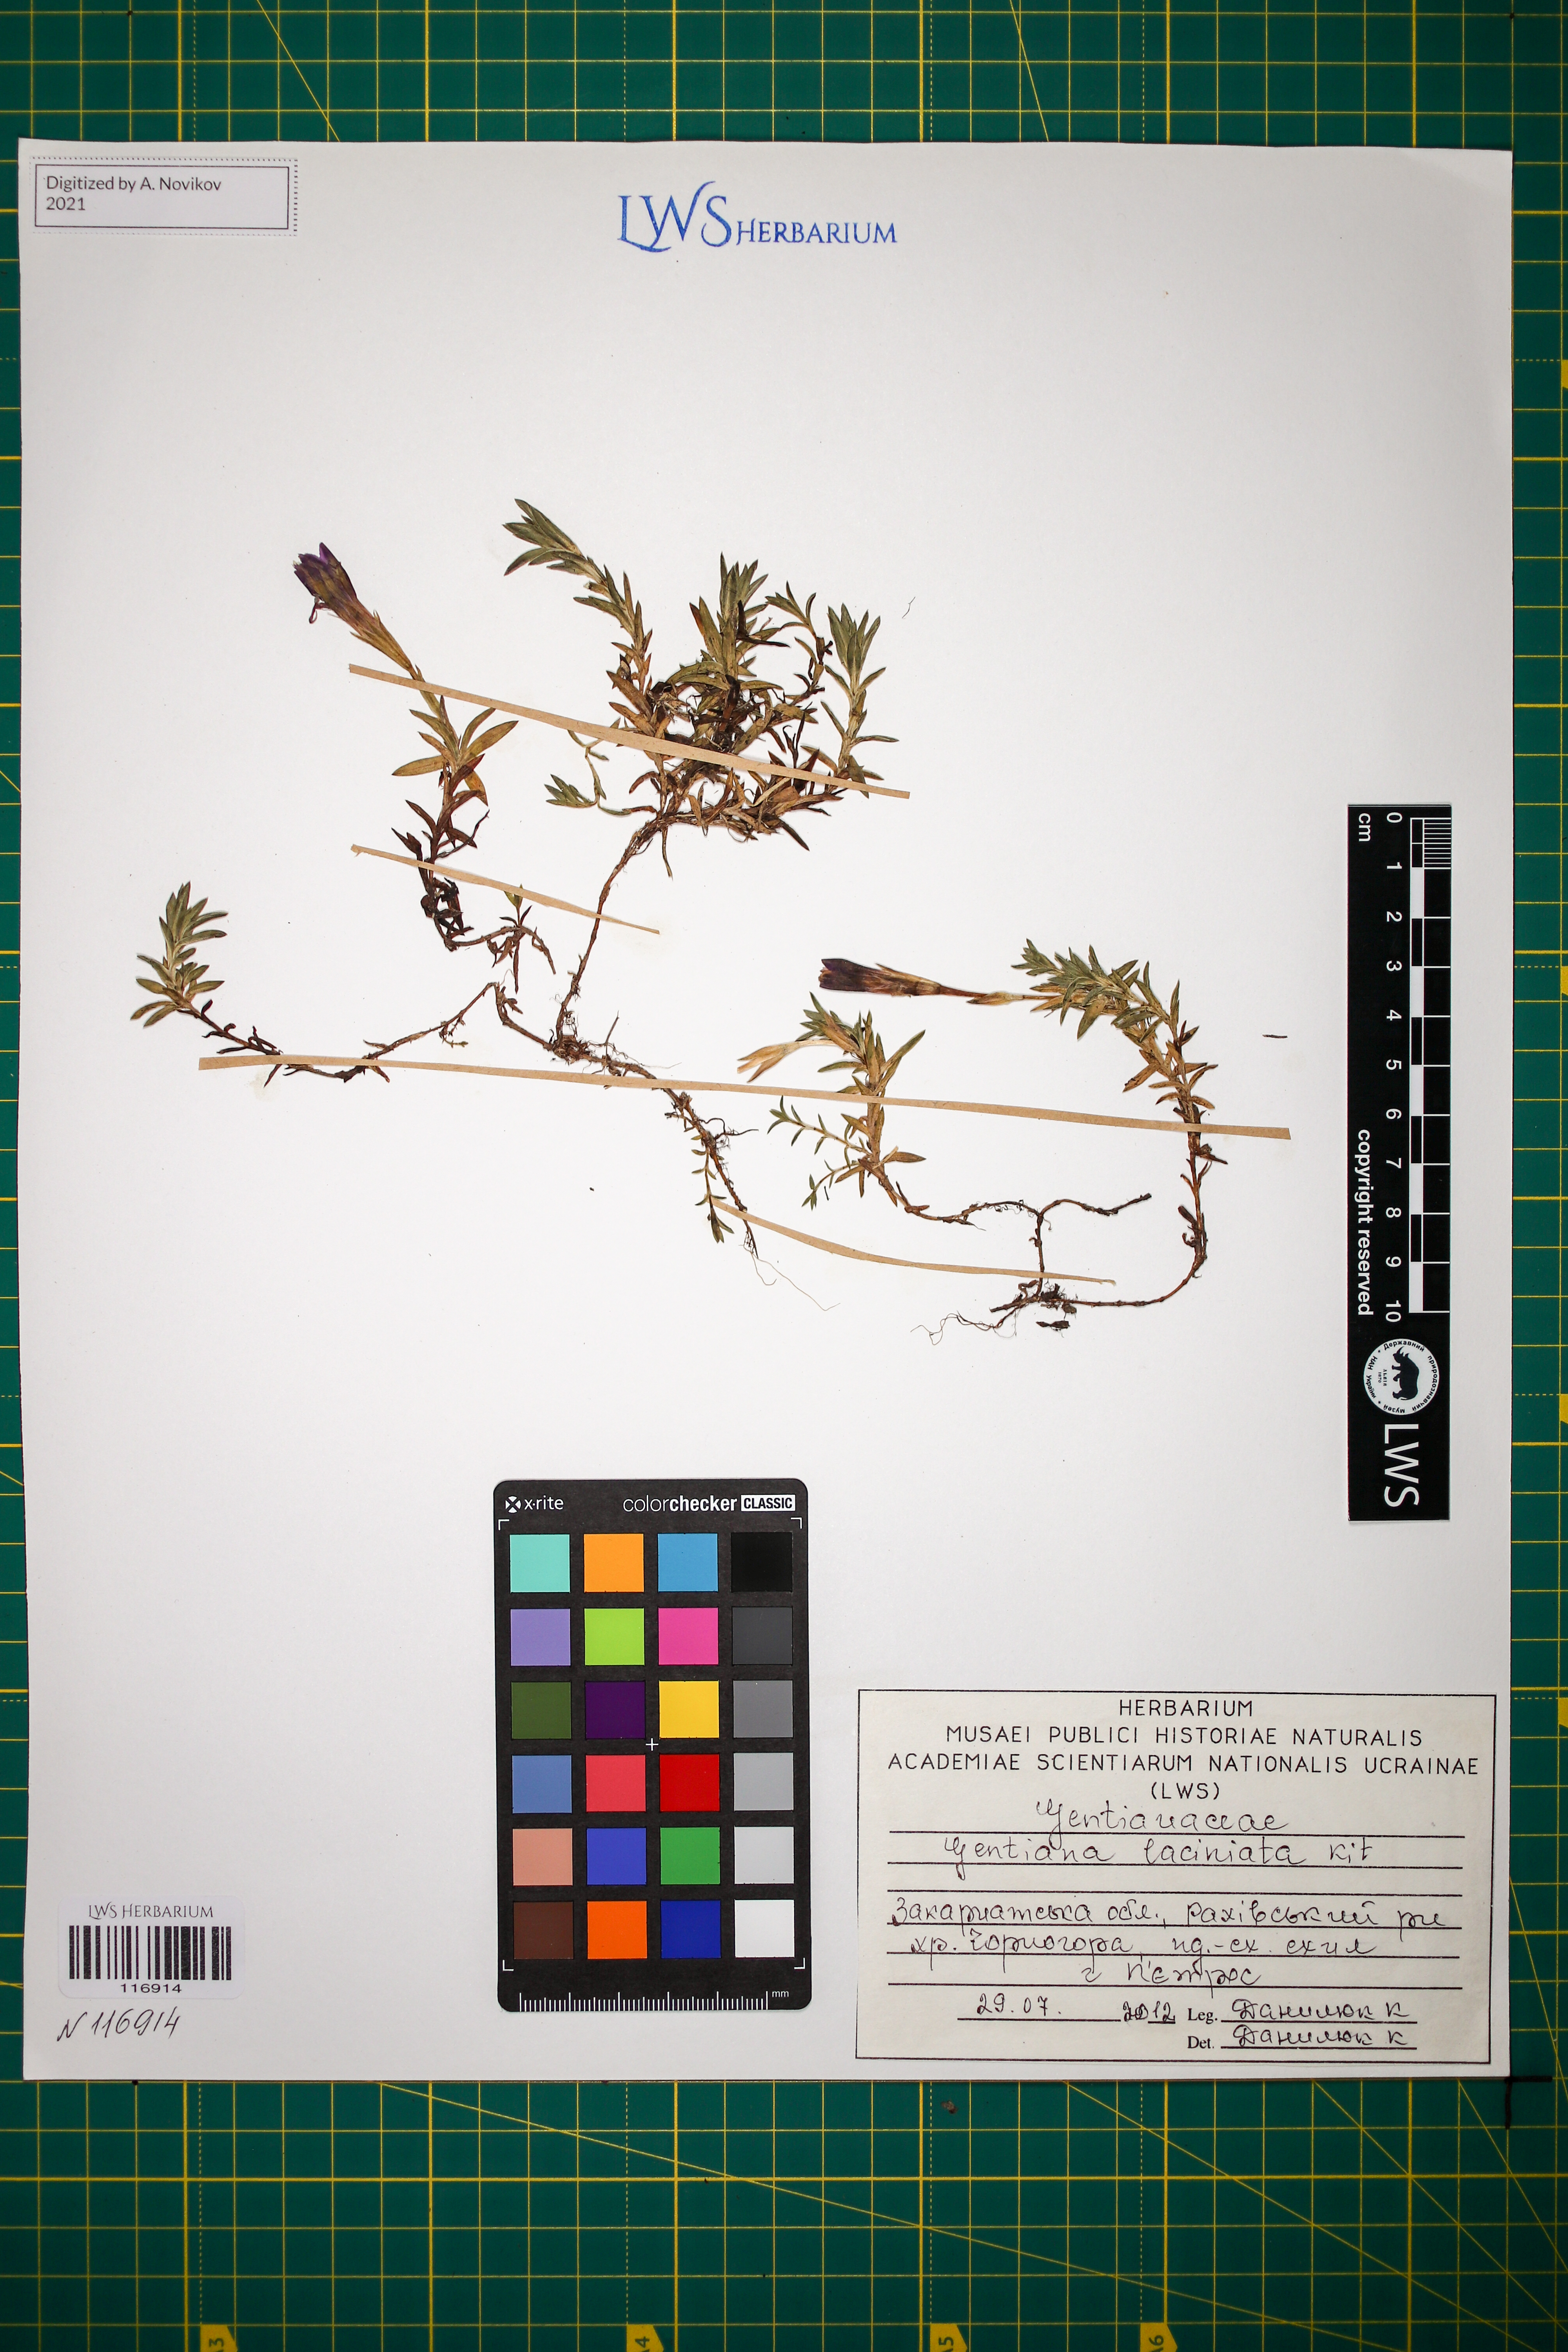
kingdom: Plantae
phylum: Tracheophyta
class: Magnoliopsida
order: Gentianales
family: Gentianaceae
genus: Gentiana
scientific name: Gentiana laciniata
